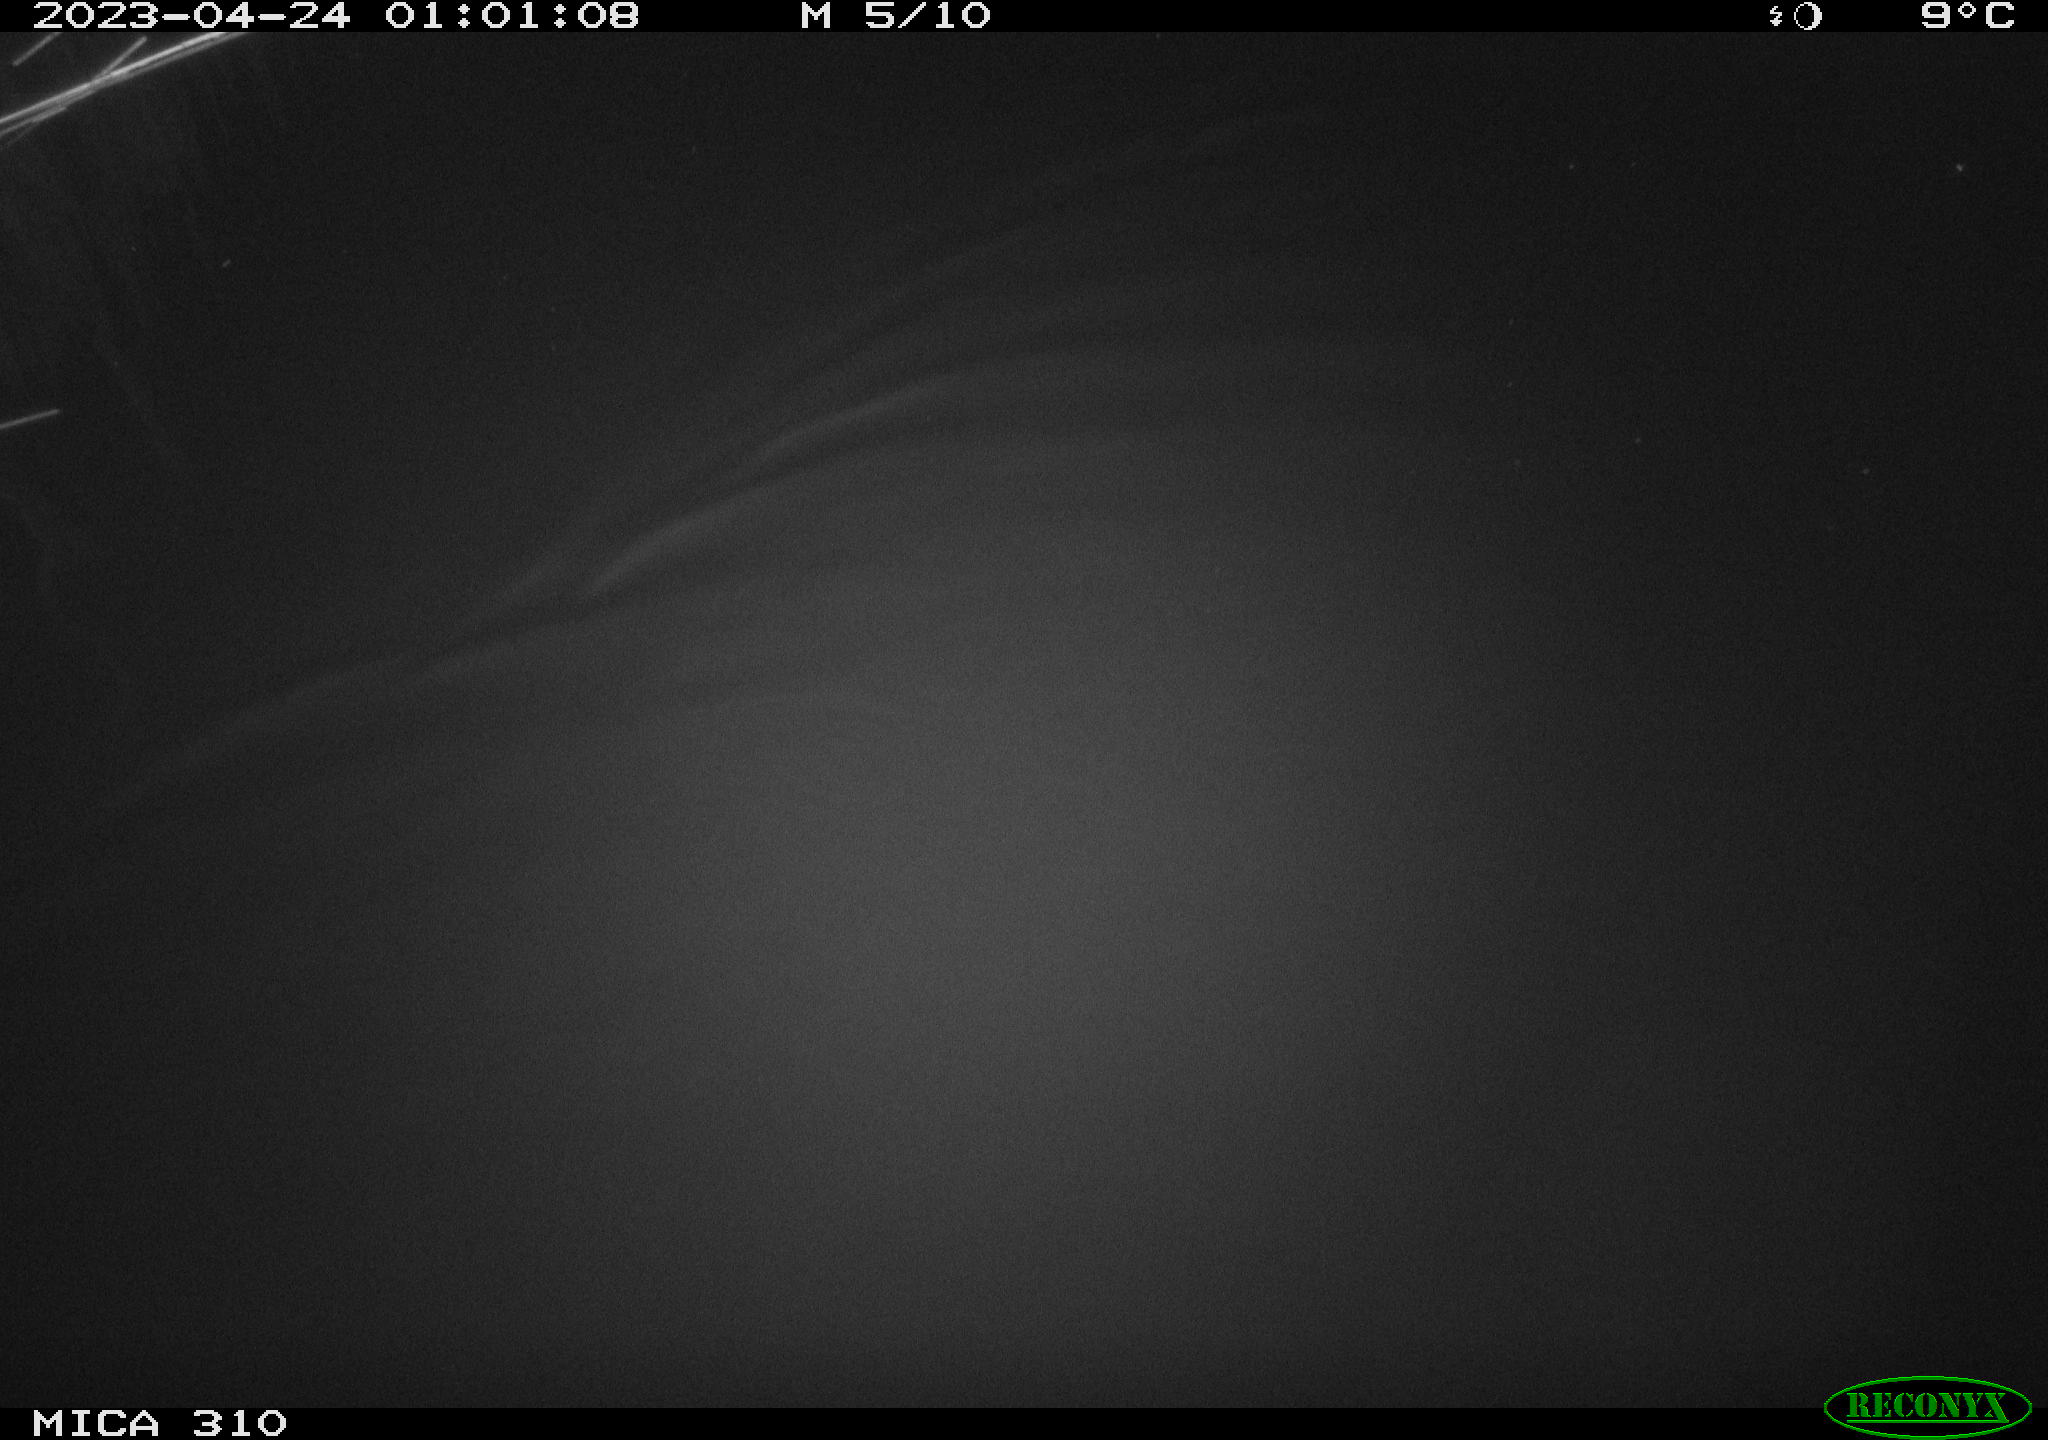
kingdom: Animalia
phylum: Chordata
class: Aves
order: Anseriformes
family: Anatidae
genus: Anas
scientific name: Anas
